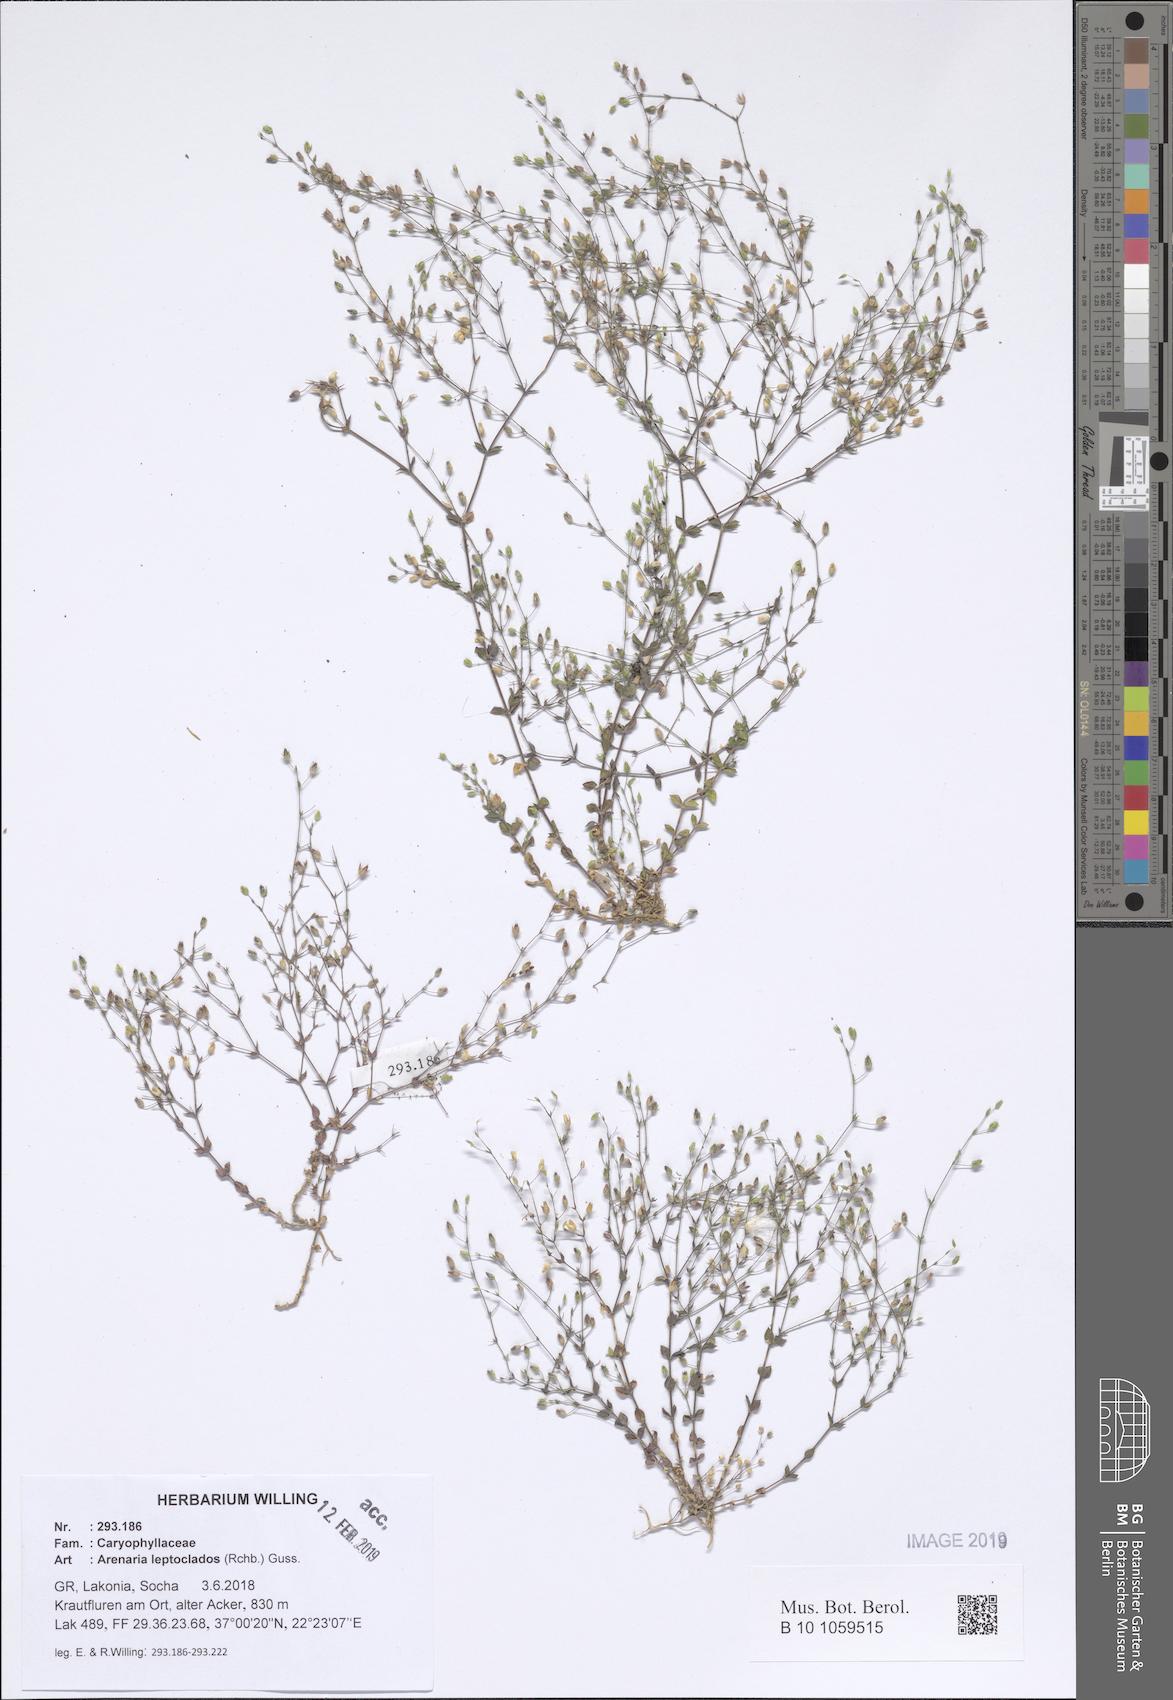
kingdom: Plantae
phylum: Tracheophyta
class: Magnoliopsida
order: Caryophyllales
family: Caryophyllaceae
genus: Arenaria
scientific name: Arenaria leptoclados
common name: Thyme-leaved sandwort
